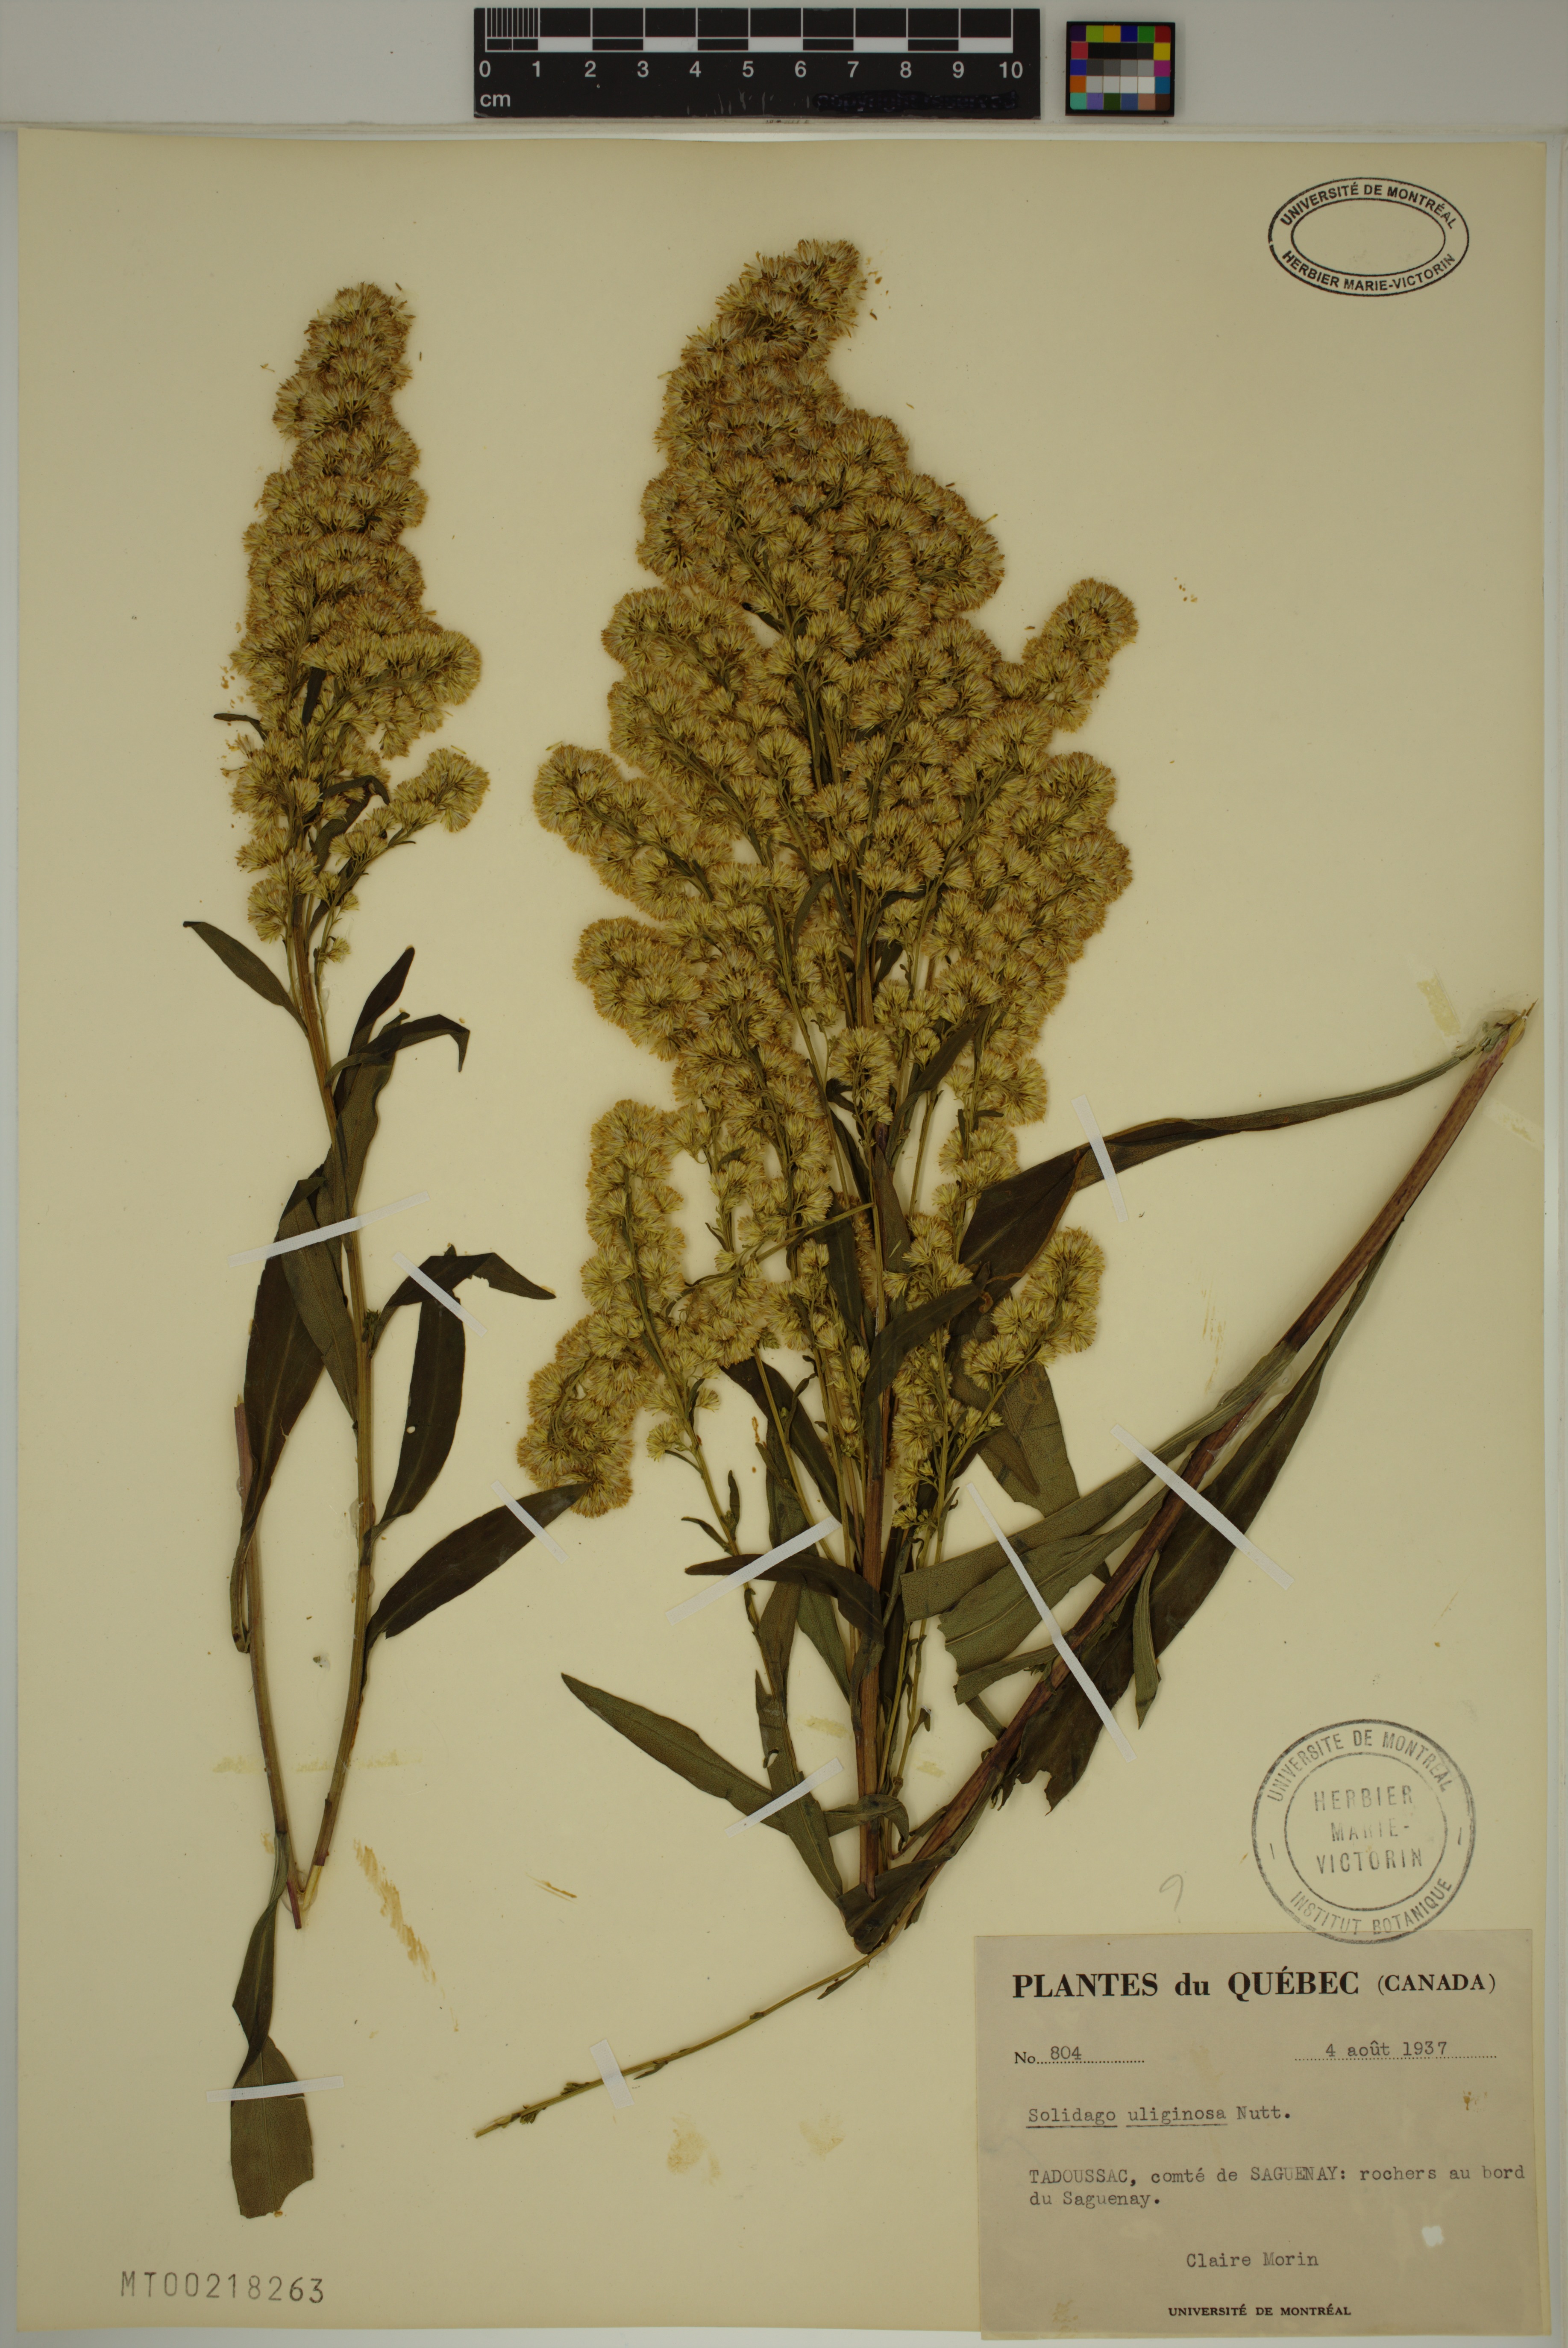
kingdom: Plantae
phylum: Tracheophyta
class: Magnoliopsida
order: Asterales
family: Asteraceae
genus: Solidago
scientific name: Solidago uliginosa
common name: Bog goldenrod
